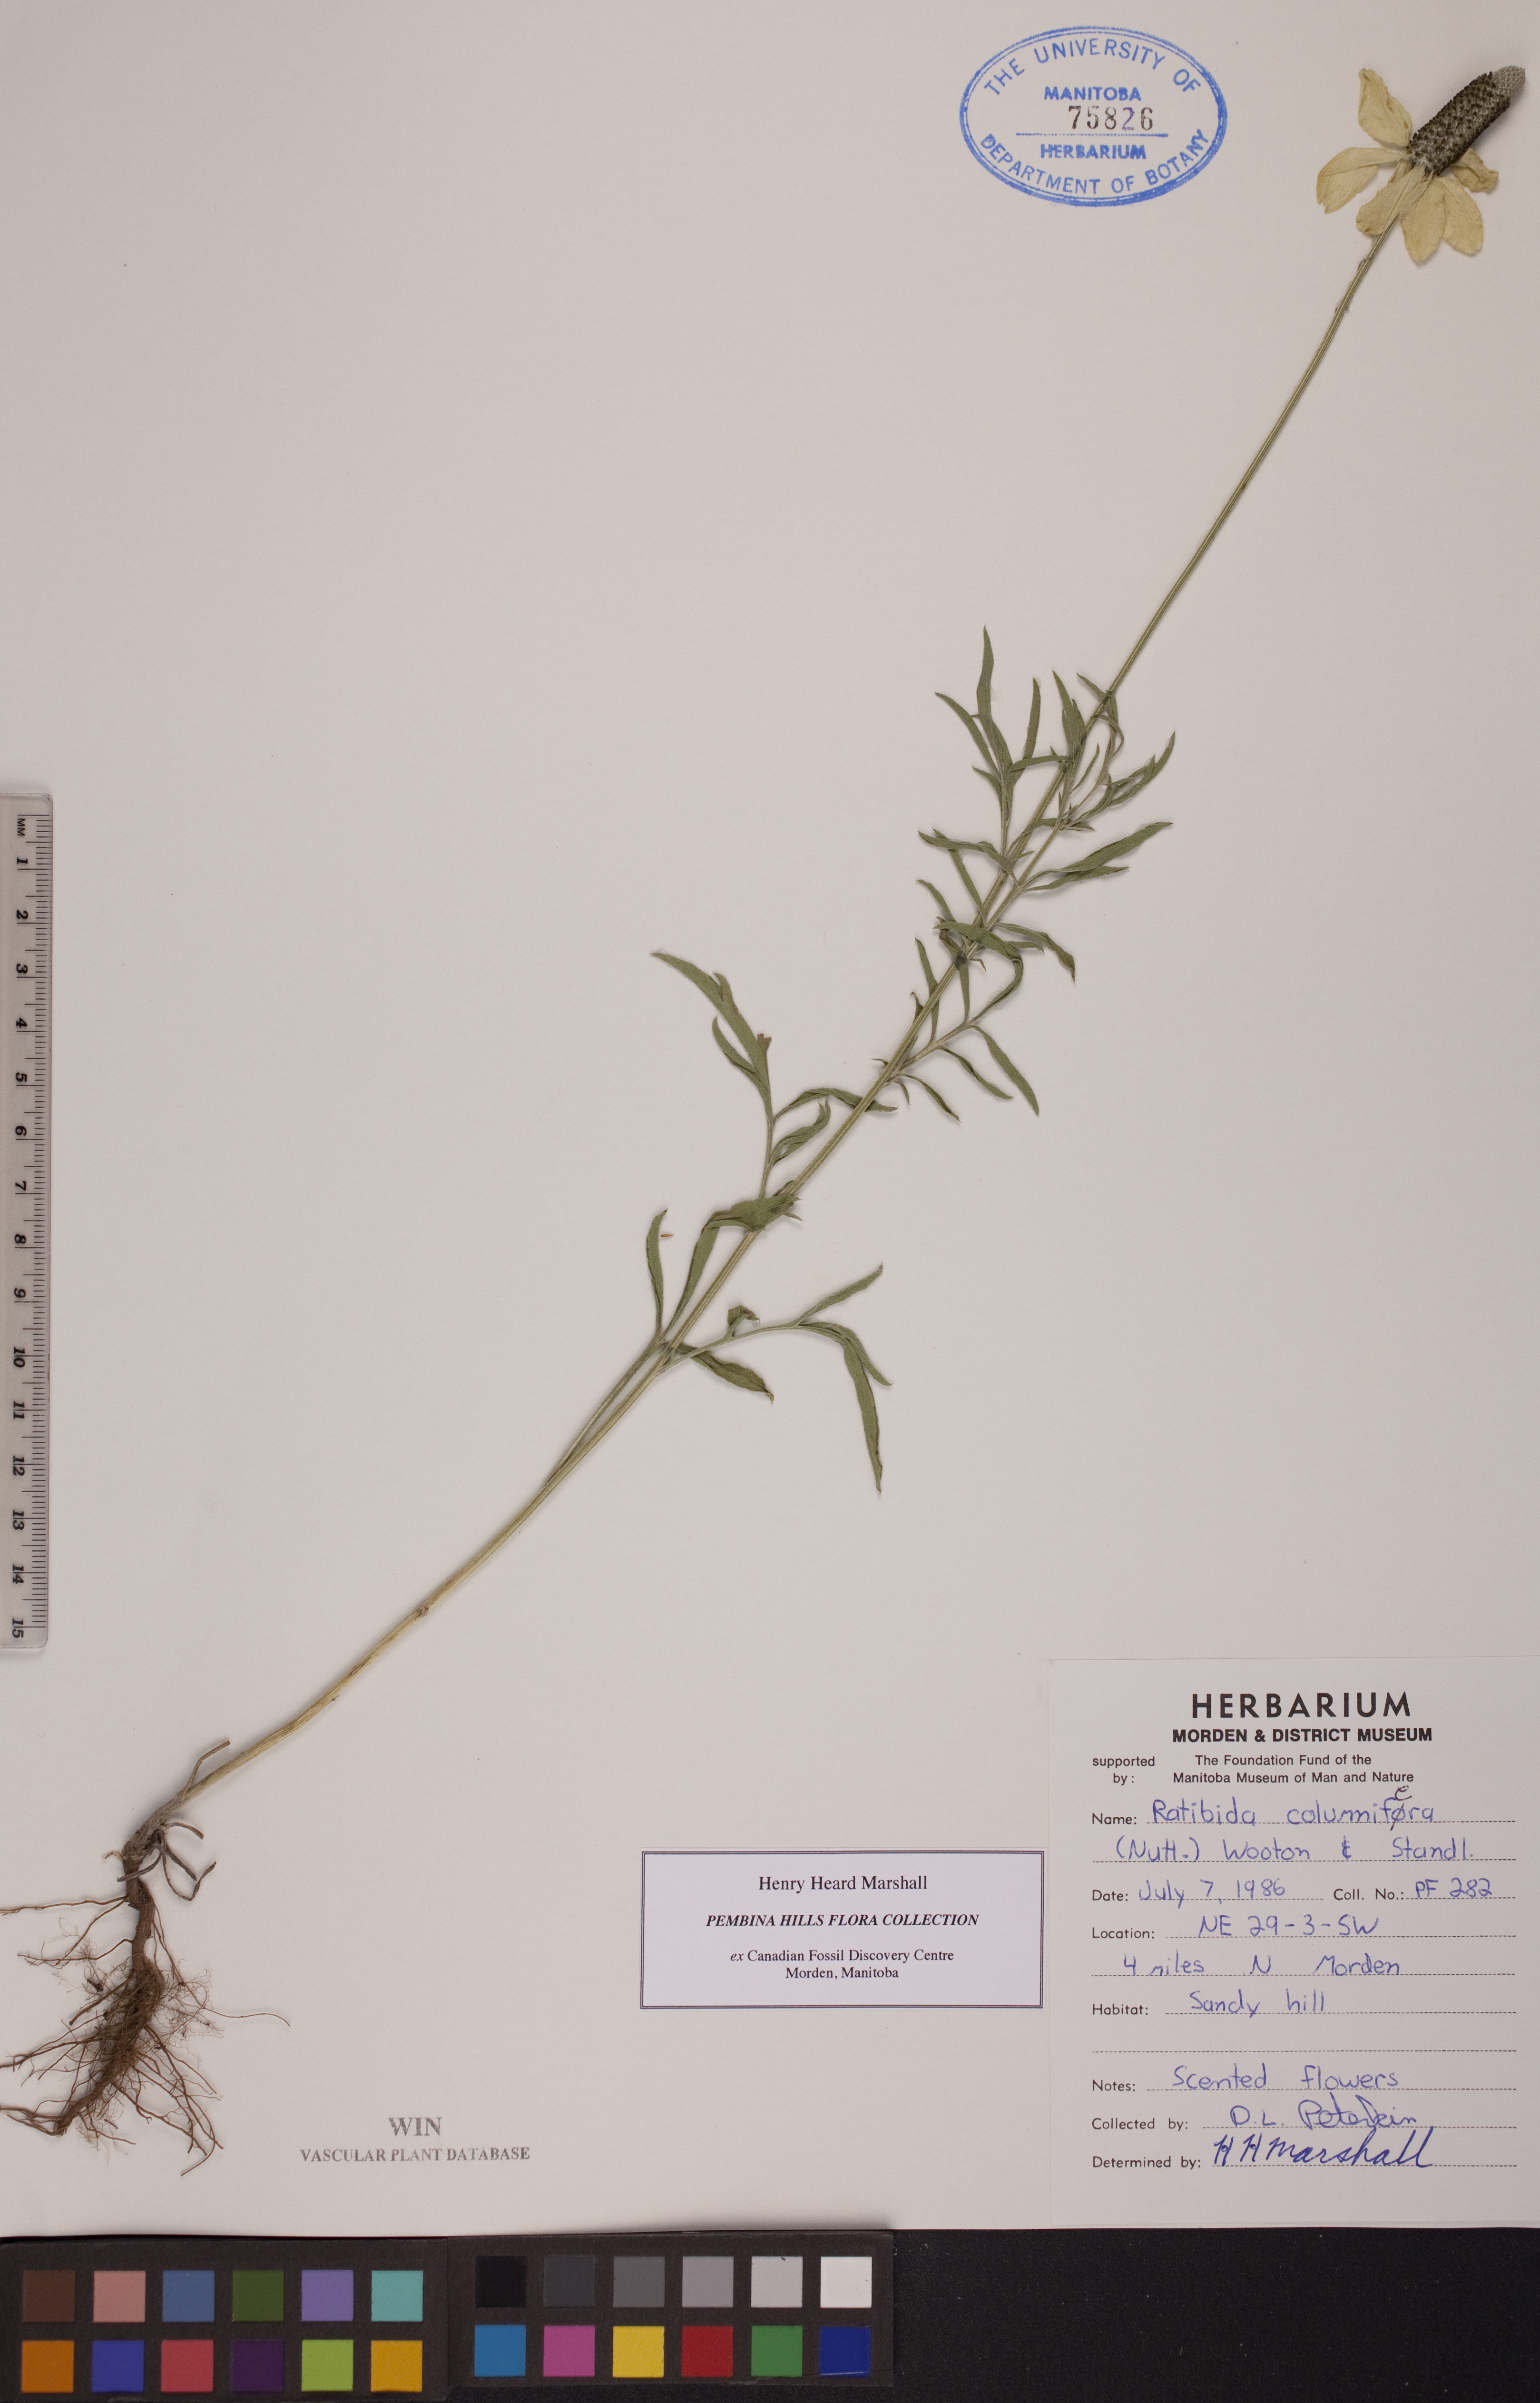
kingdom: Plantae
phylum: Tracheophyta
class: Magnoliopsida
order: Asterales
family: Asteraceae
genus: Ratibida
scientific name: Ratibida columnifera
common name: Prairie coneflower
